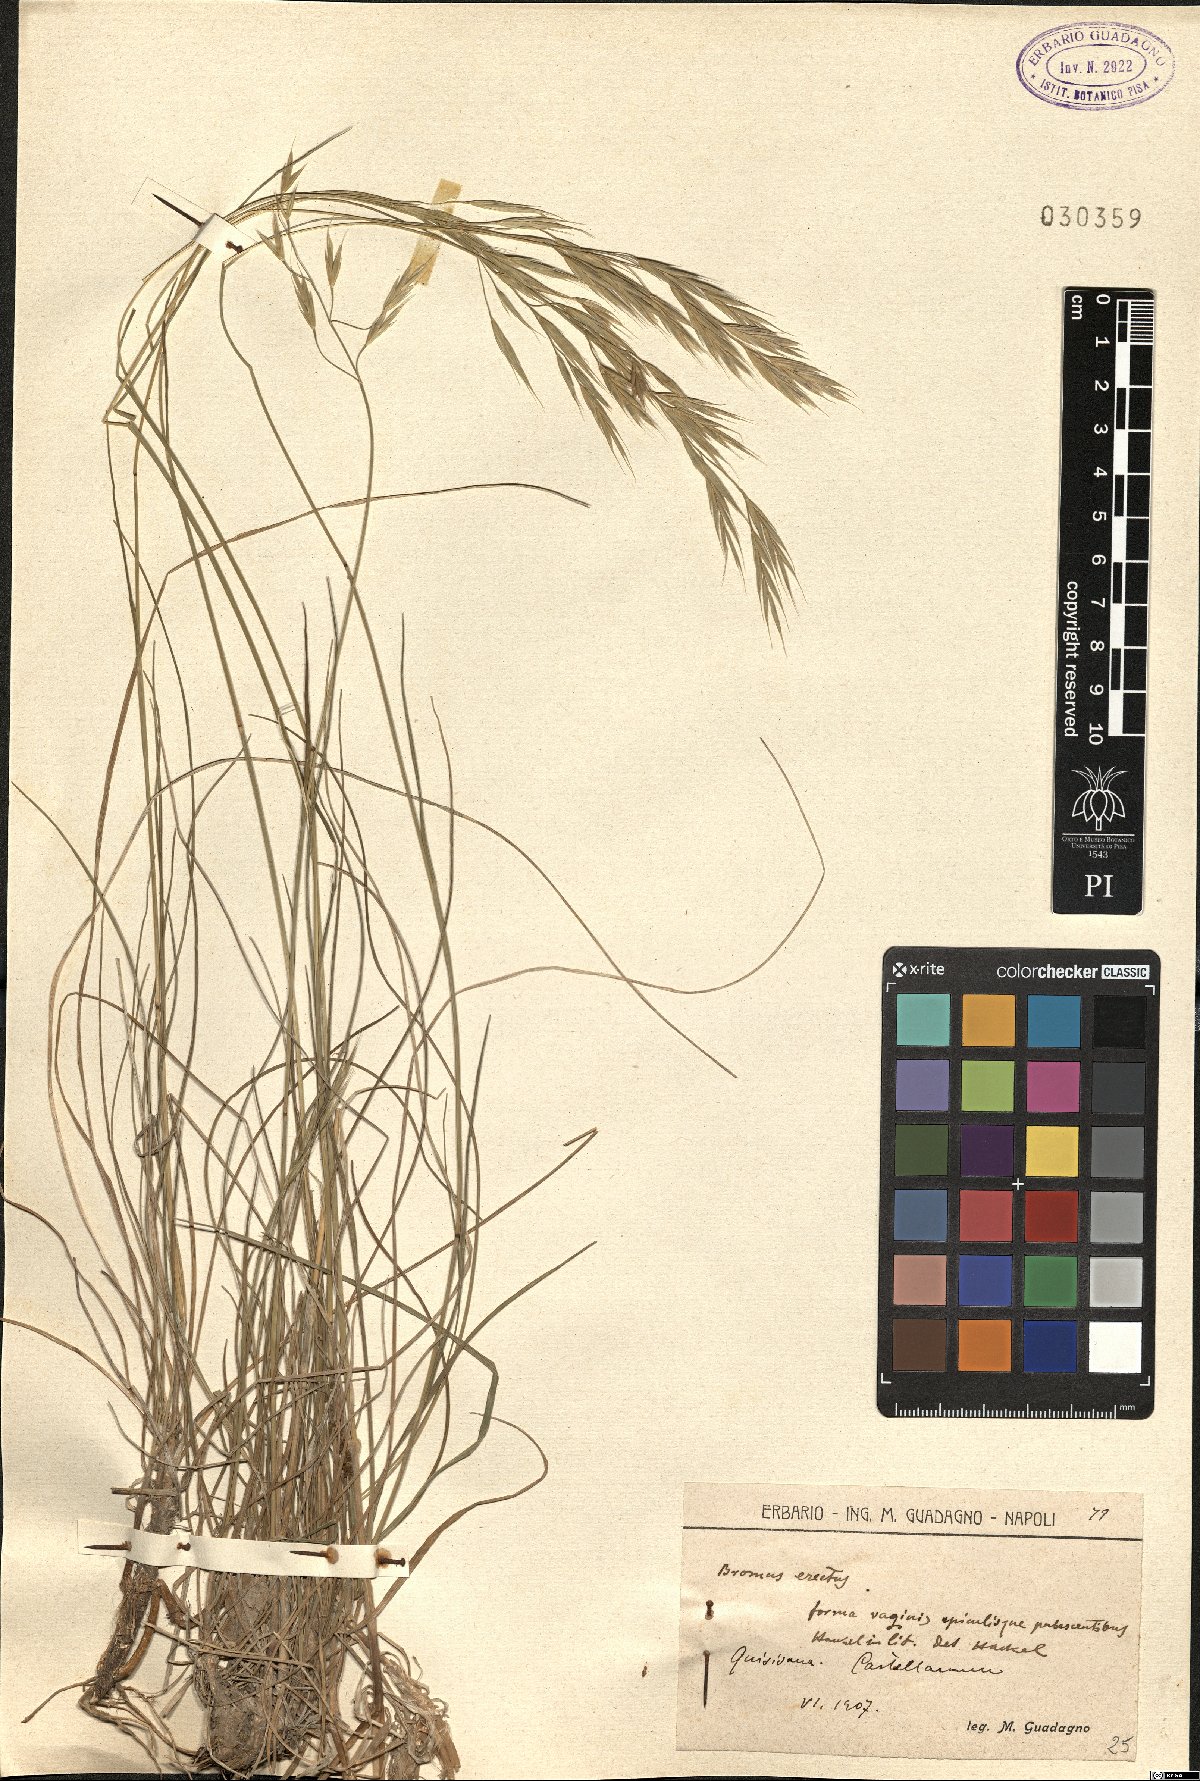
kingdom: Plantae
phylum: Tracheophyta
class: Liliopsida
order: Poales
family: Poaceae
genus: Bromus
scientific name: Bromus erectus
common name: Erect brome
